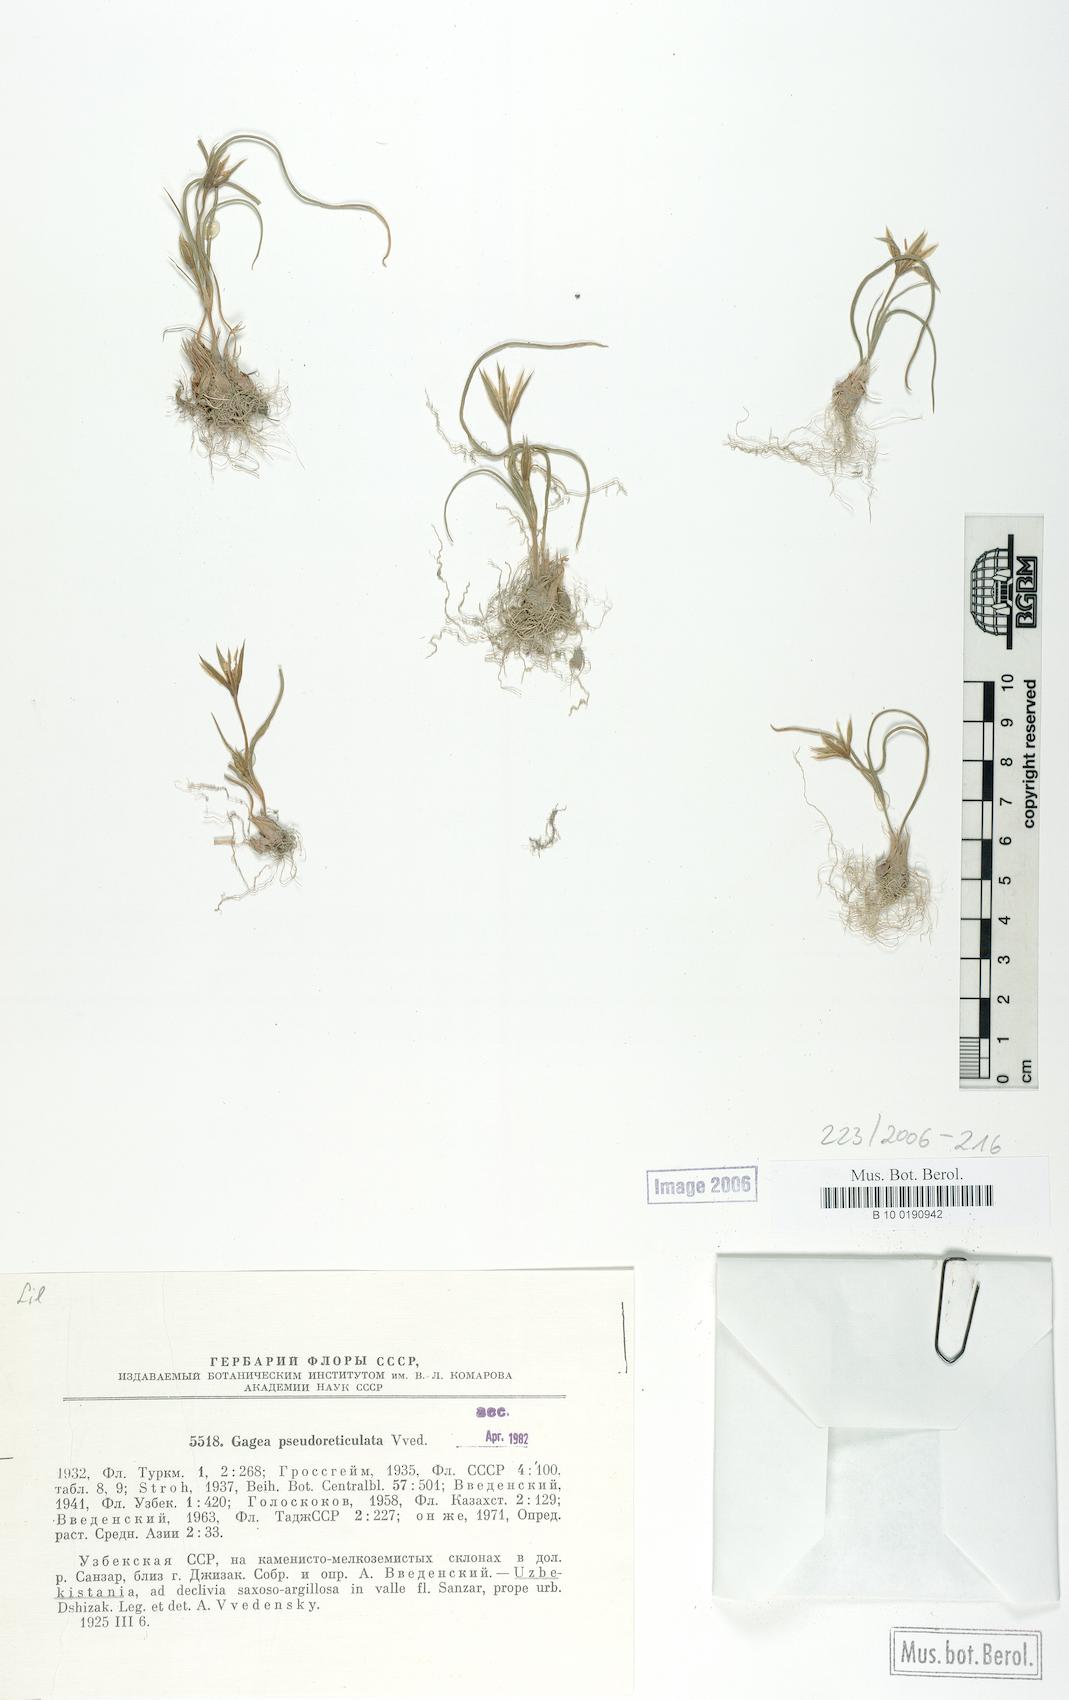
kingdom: Plantae
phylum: Tracheophyta
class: Liliopsida
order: Liliales
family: Liliaceae
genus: Gagea
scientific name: Gagea reticulata
